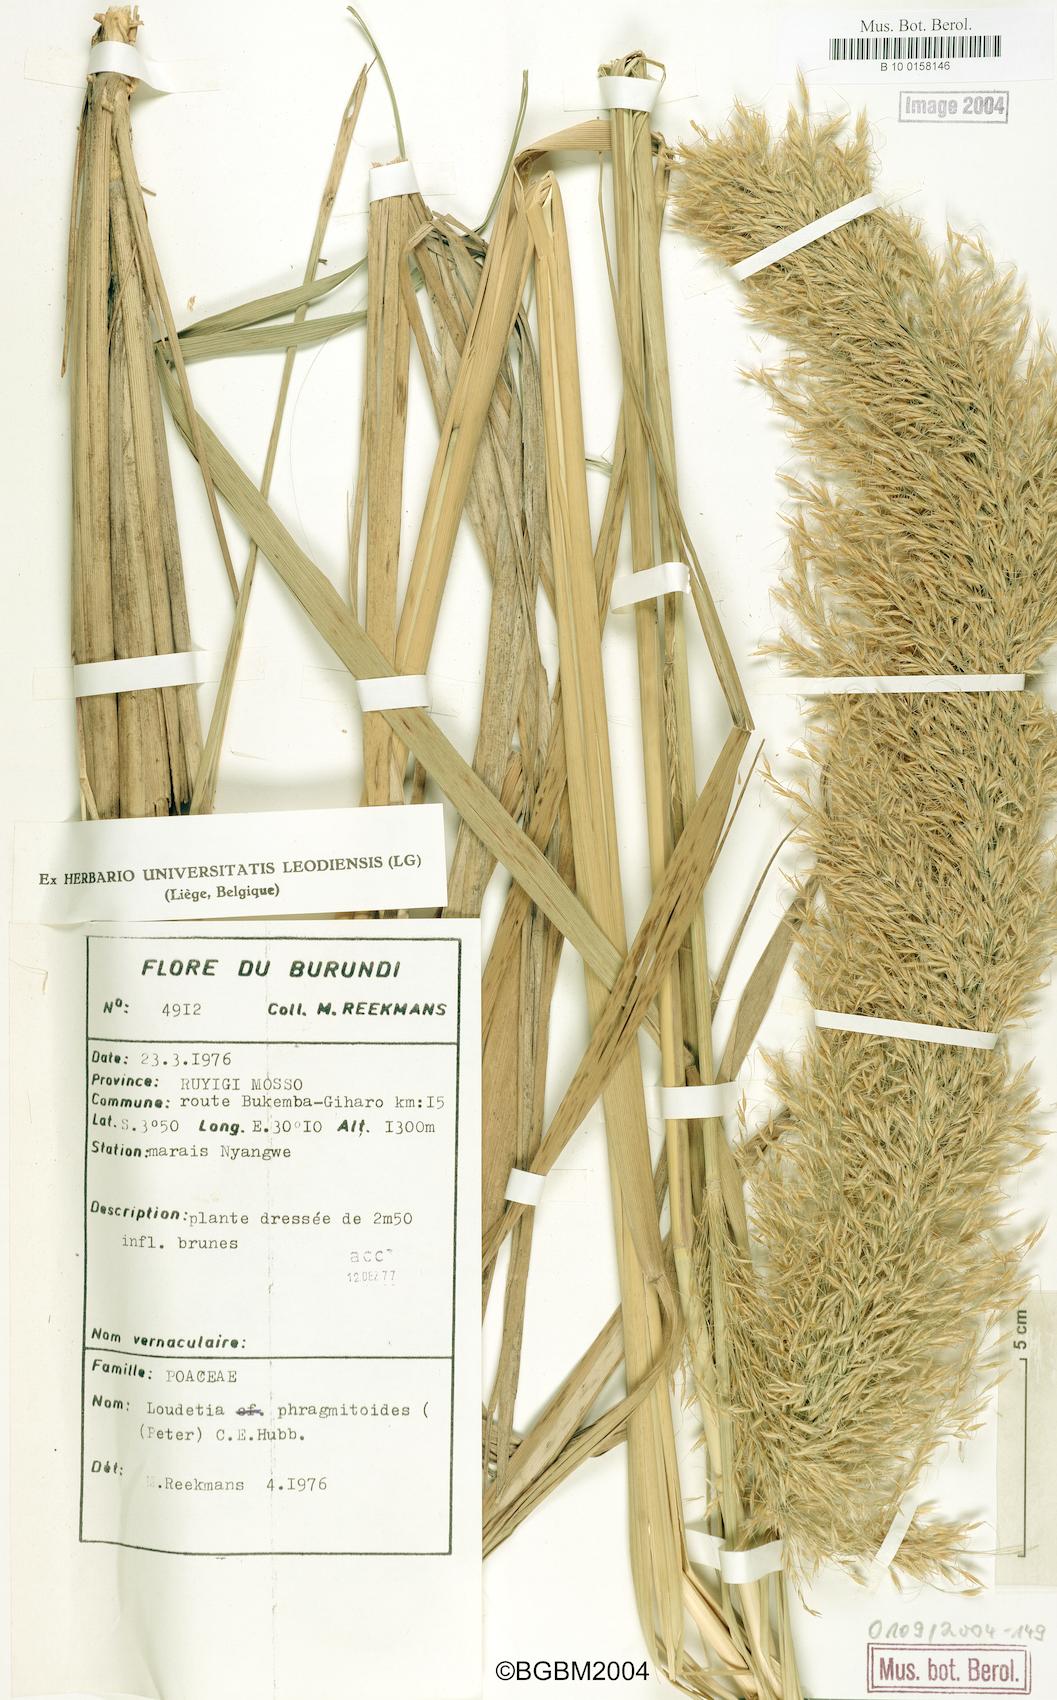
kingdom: Plantae
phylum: Tracheophyta
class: Liliopsida
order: Poales
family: Poaceae
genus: Loudetia
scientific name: Loudetia phragmitoides
